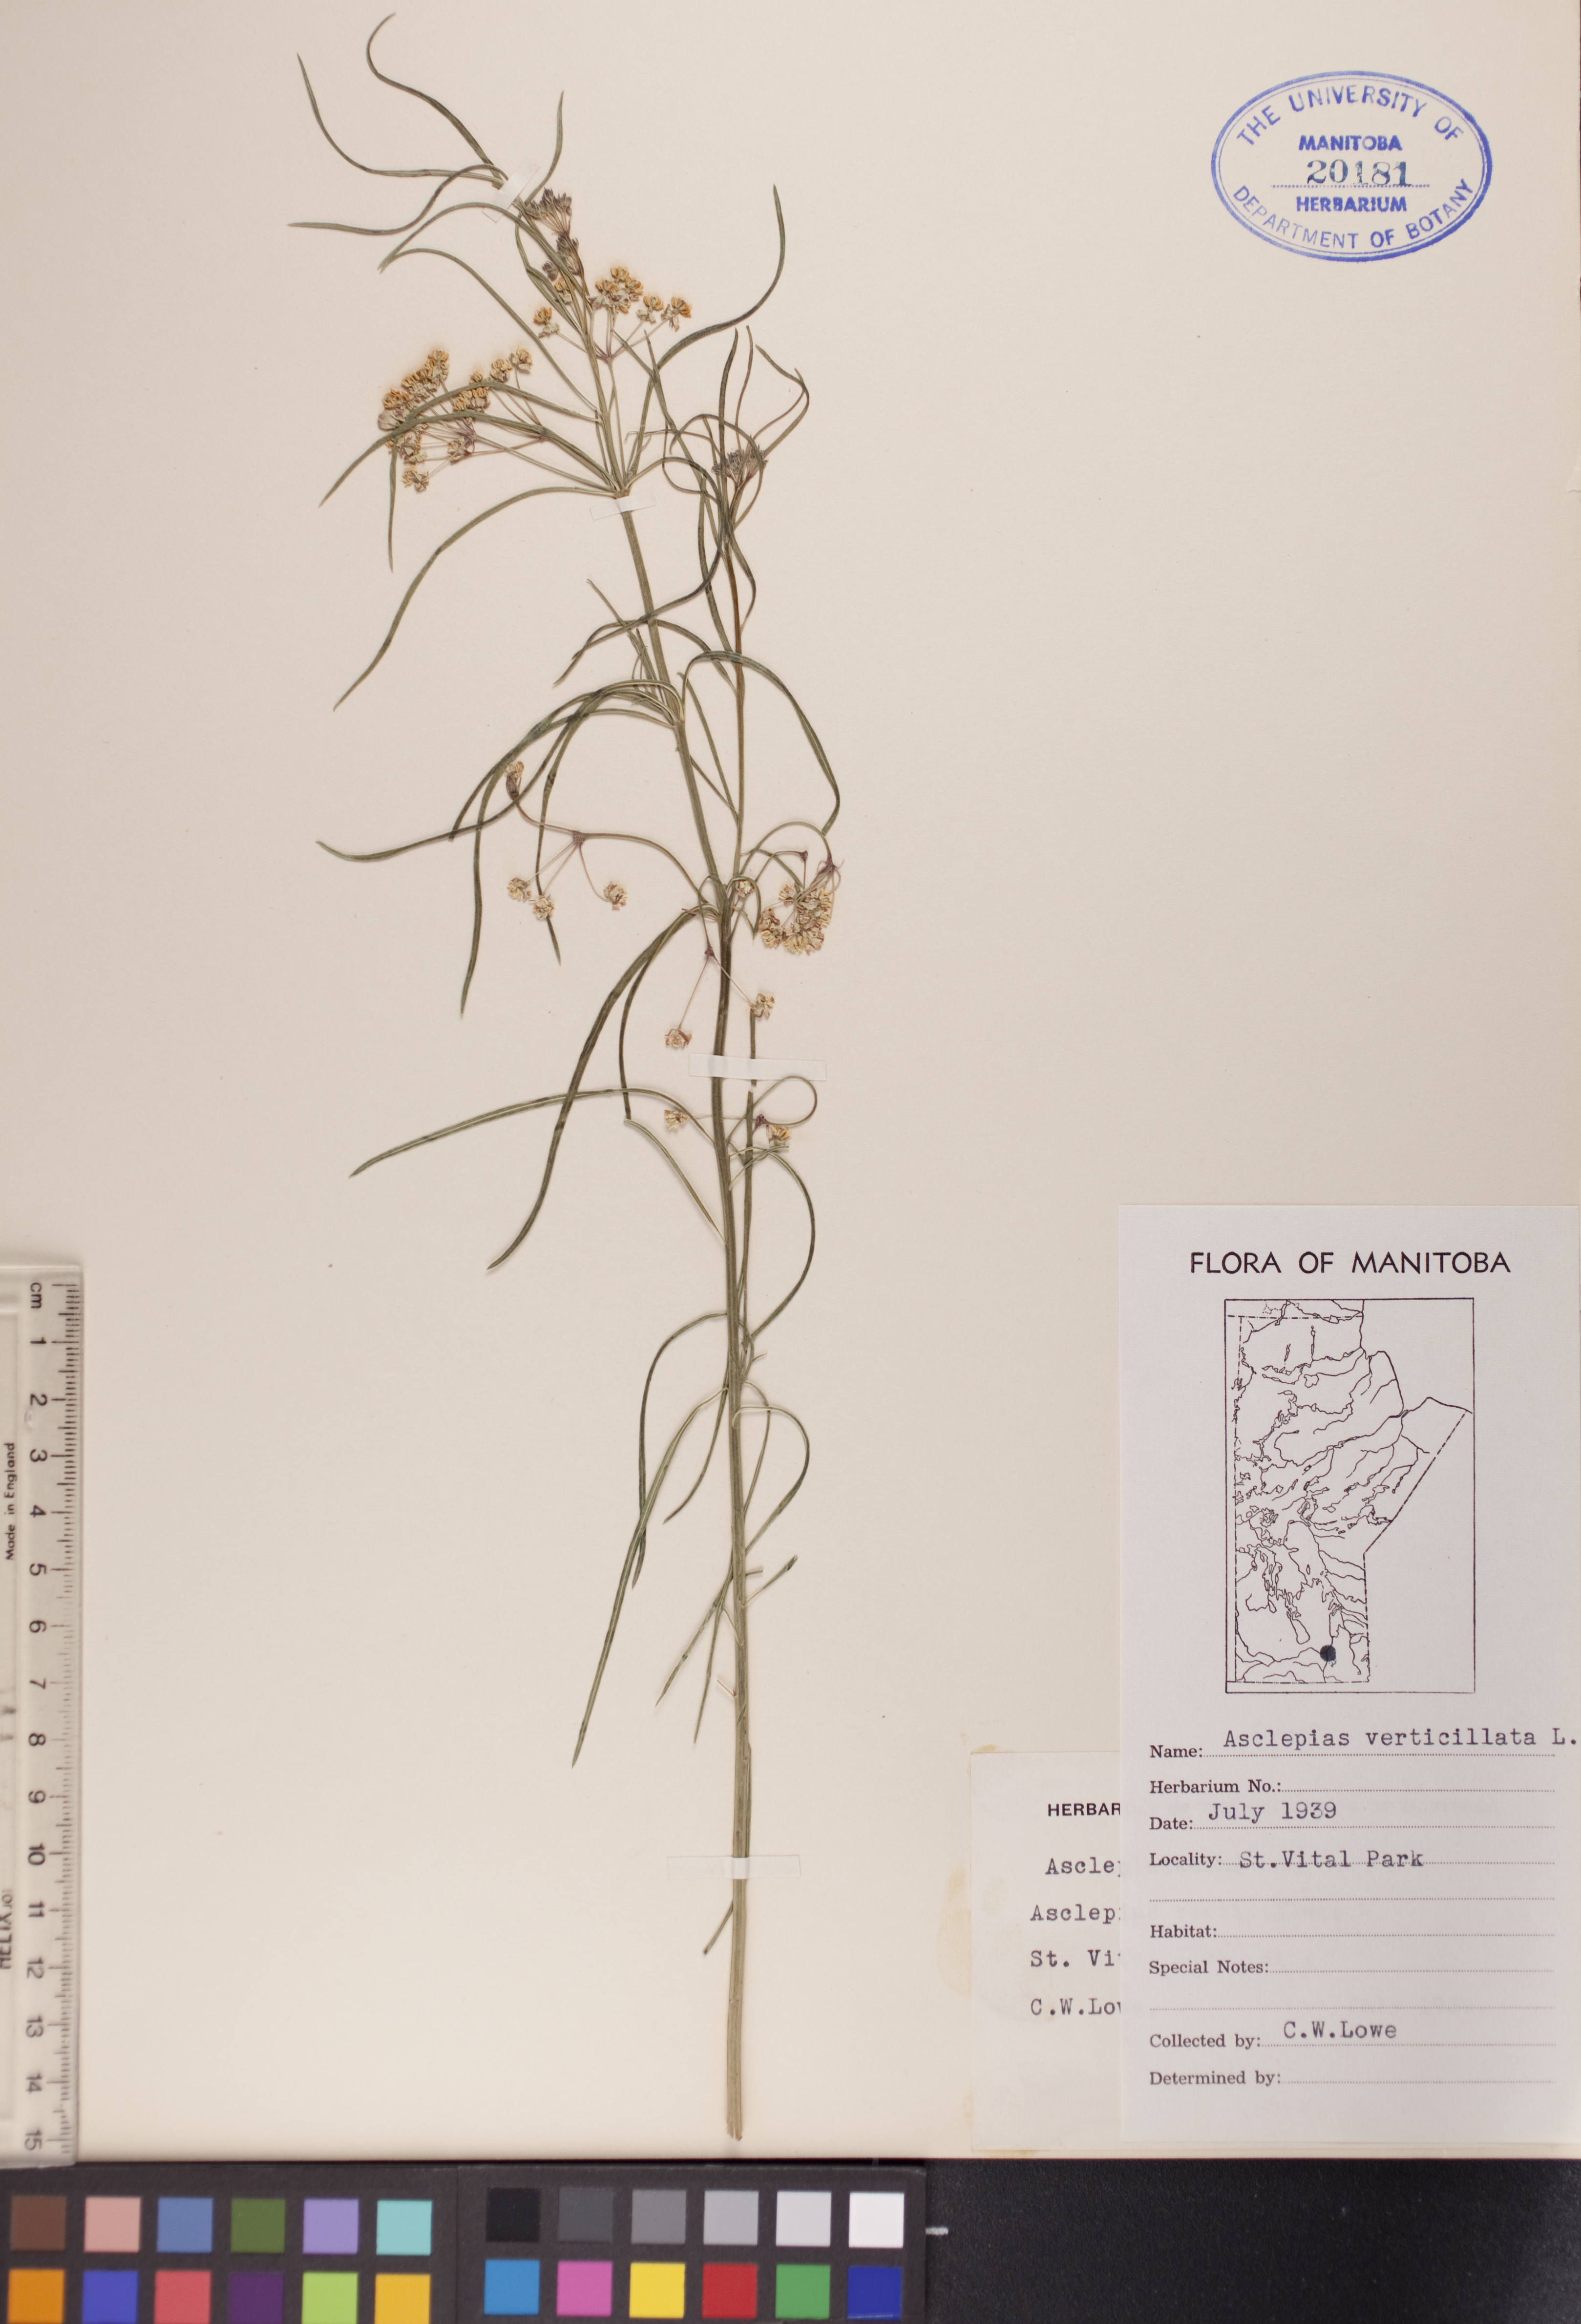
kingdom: Plantae
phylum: Tracheophyta
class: Magnoliopsida
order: Gentianales
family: Apocynaceae
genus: Asclepias
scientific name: Asclepias verticillata
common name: Eastern whorled milkweed
